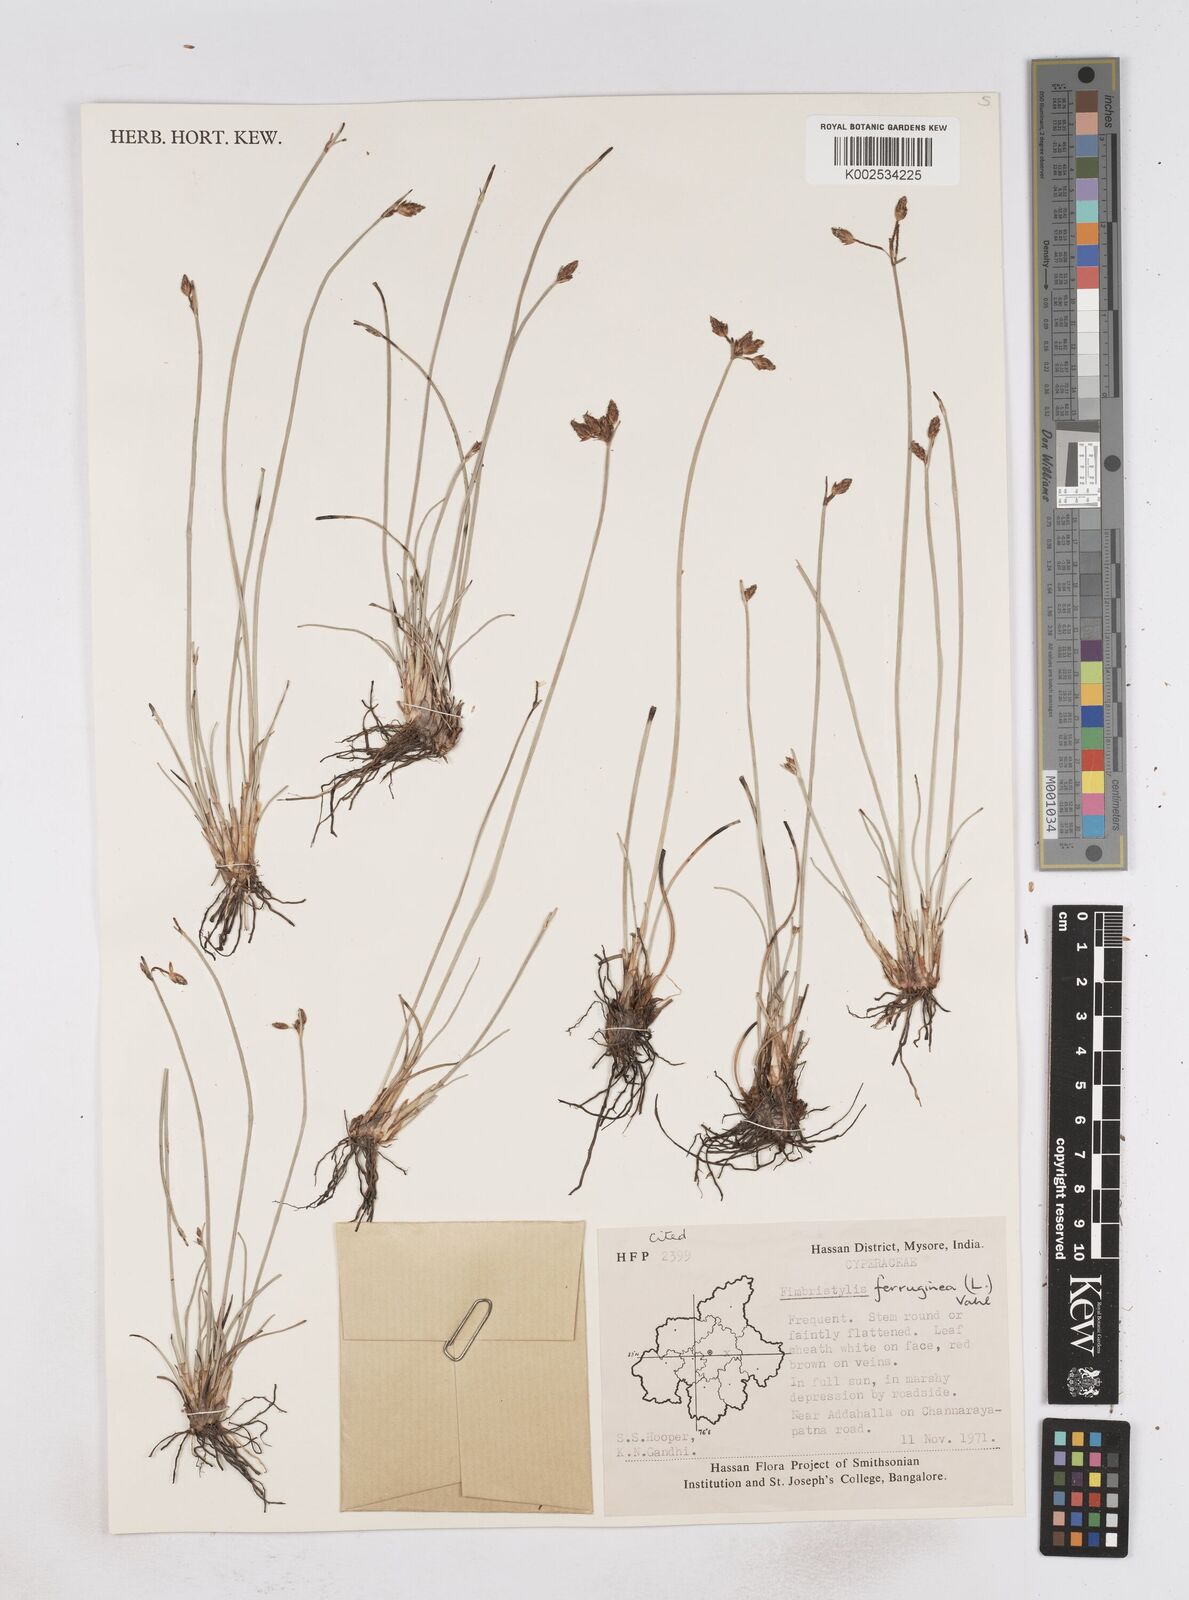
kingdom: Plantae
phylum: Tracheophyta
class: Liliopsida
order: Poales
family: Cyperaceae
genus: Fimbristylis
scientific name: Fimbristylis ferruginea
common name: West indian fimbry
